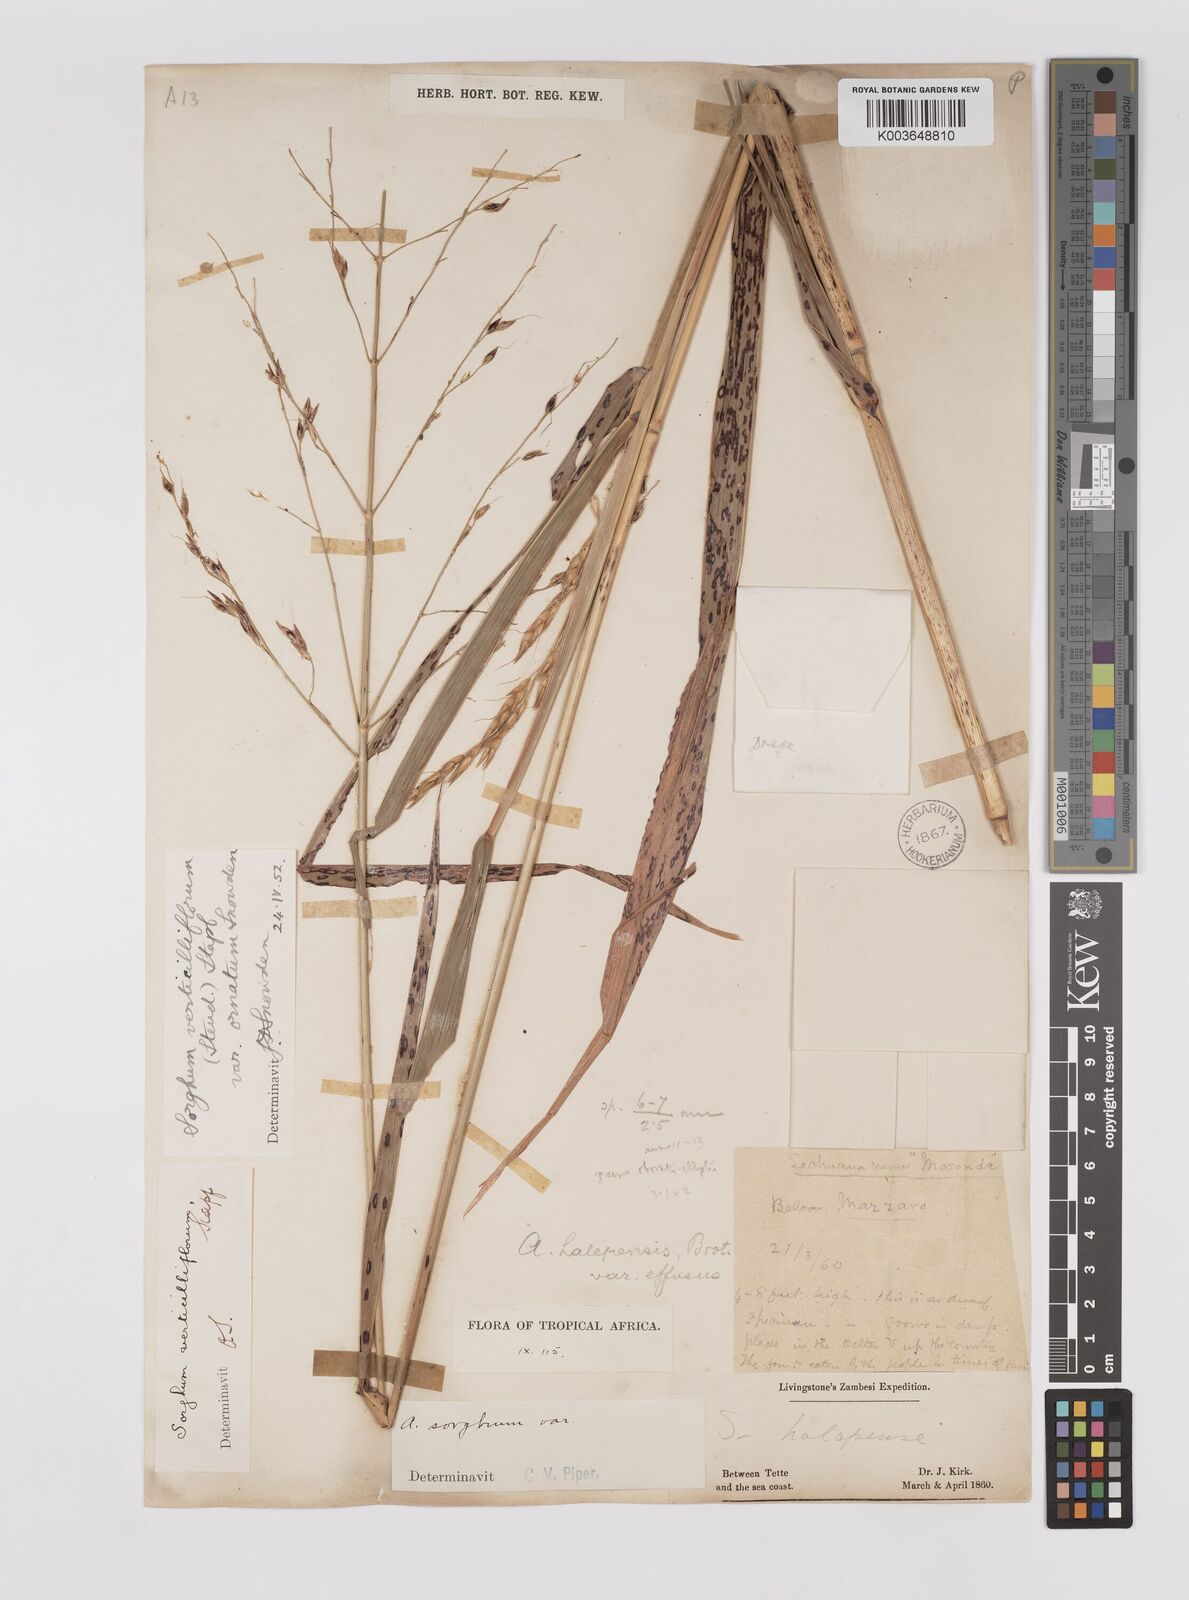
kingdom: Plantae
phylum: Tracheophyta
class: Liliopsida
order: Poales
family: Poaceae
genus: Sorghum
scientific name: Sorghum arundinaceum
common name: Sorghum
